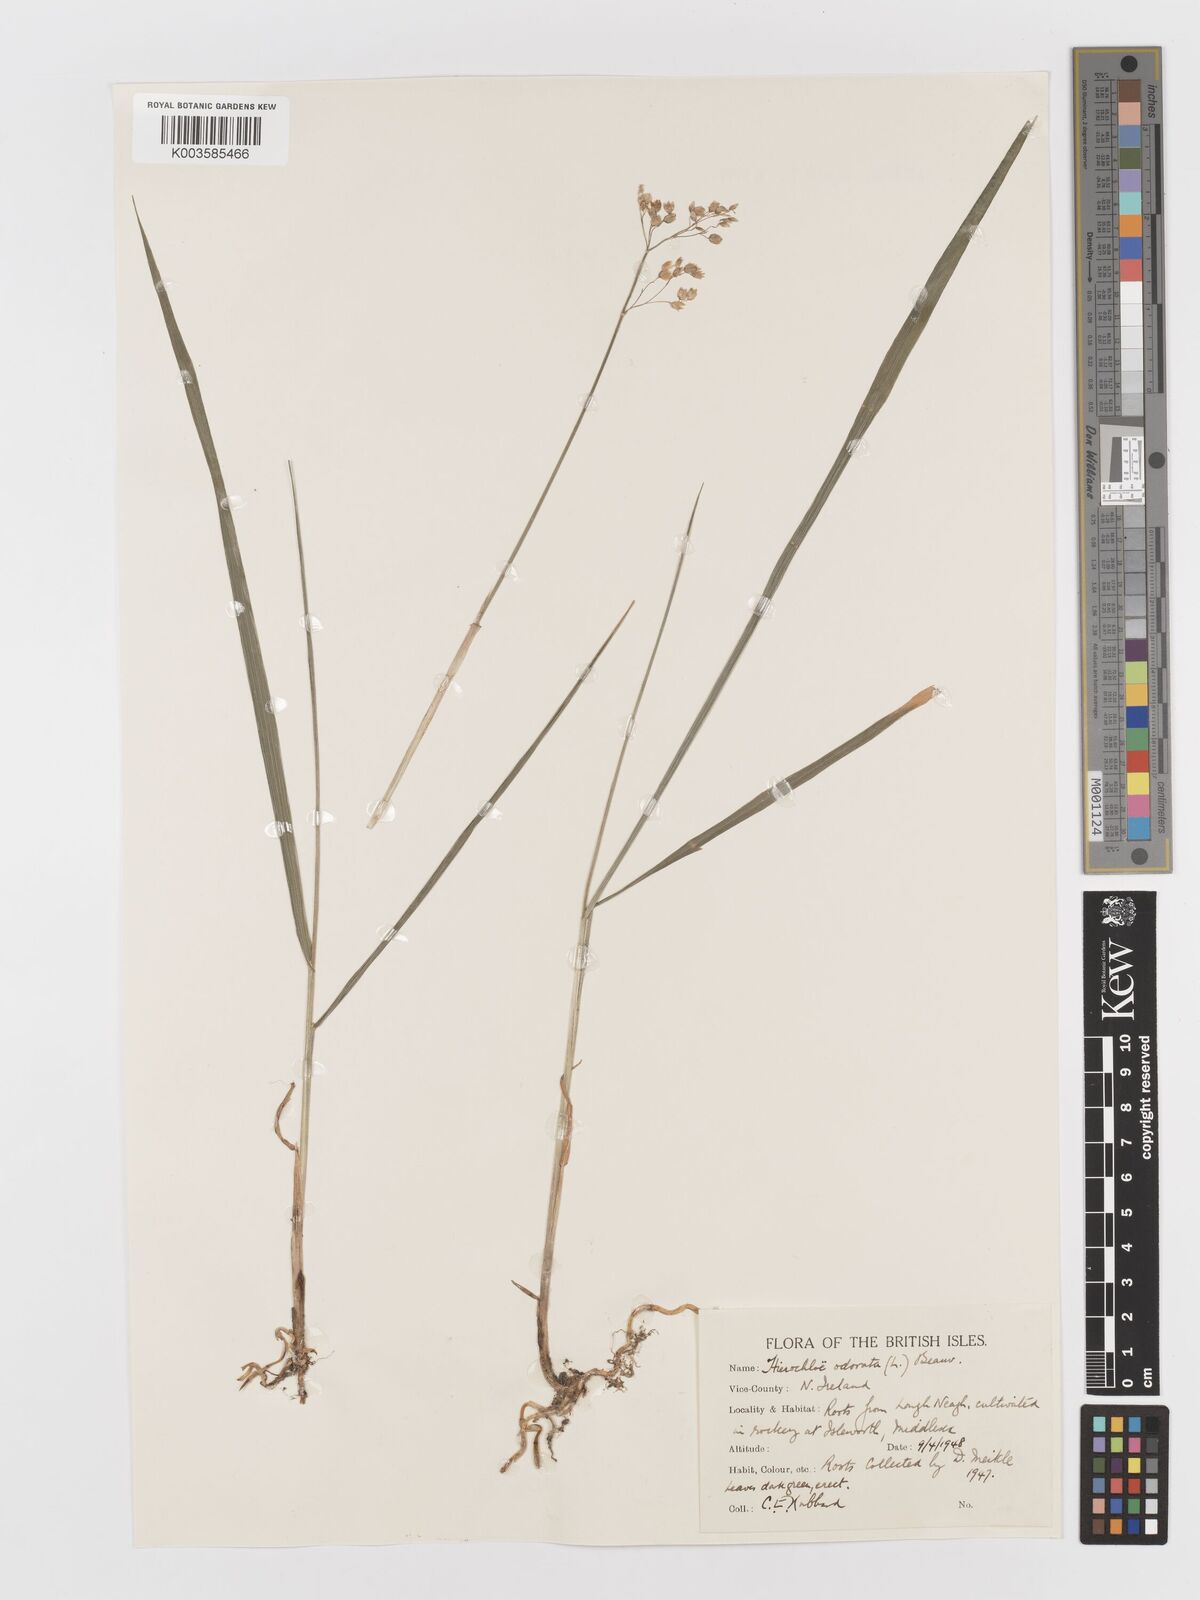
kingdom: Plantae
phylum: Tracheophyta
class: Liliopsida
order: Poales
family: Poaceae
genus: Anthoxanthum
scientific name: Anthoxanthum nitens
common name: Holy grass
